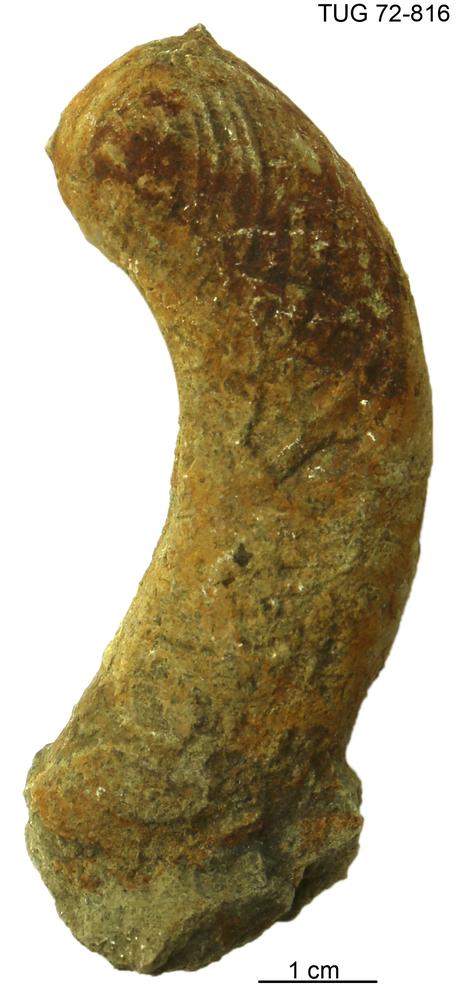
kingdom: Animalia
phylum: Mollusca
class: Cephalopoda
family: Trocholitidae
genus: Discoceras
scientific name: Discoceras
